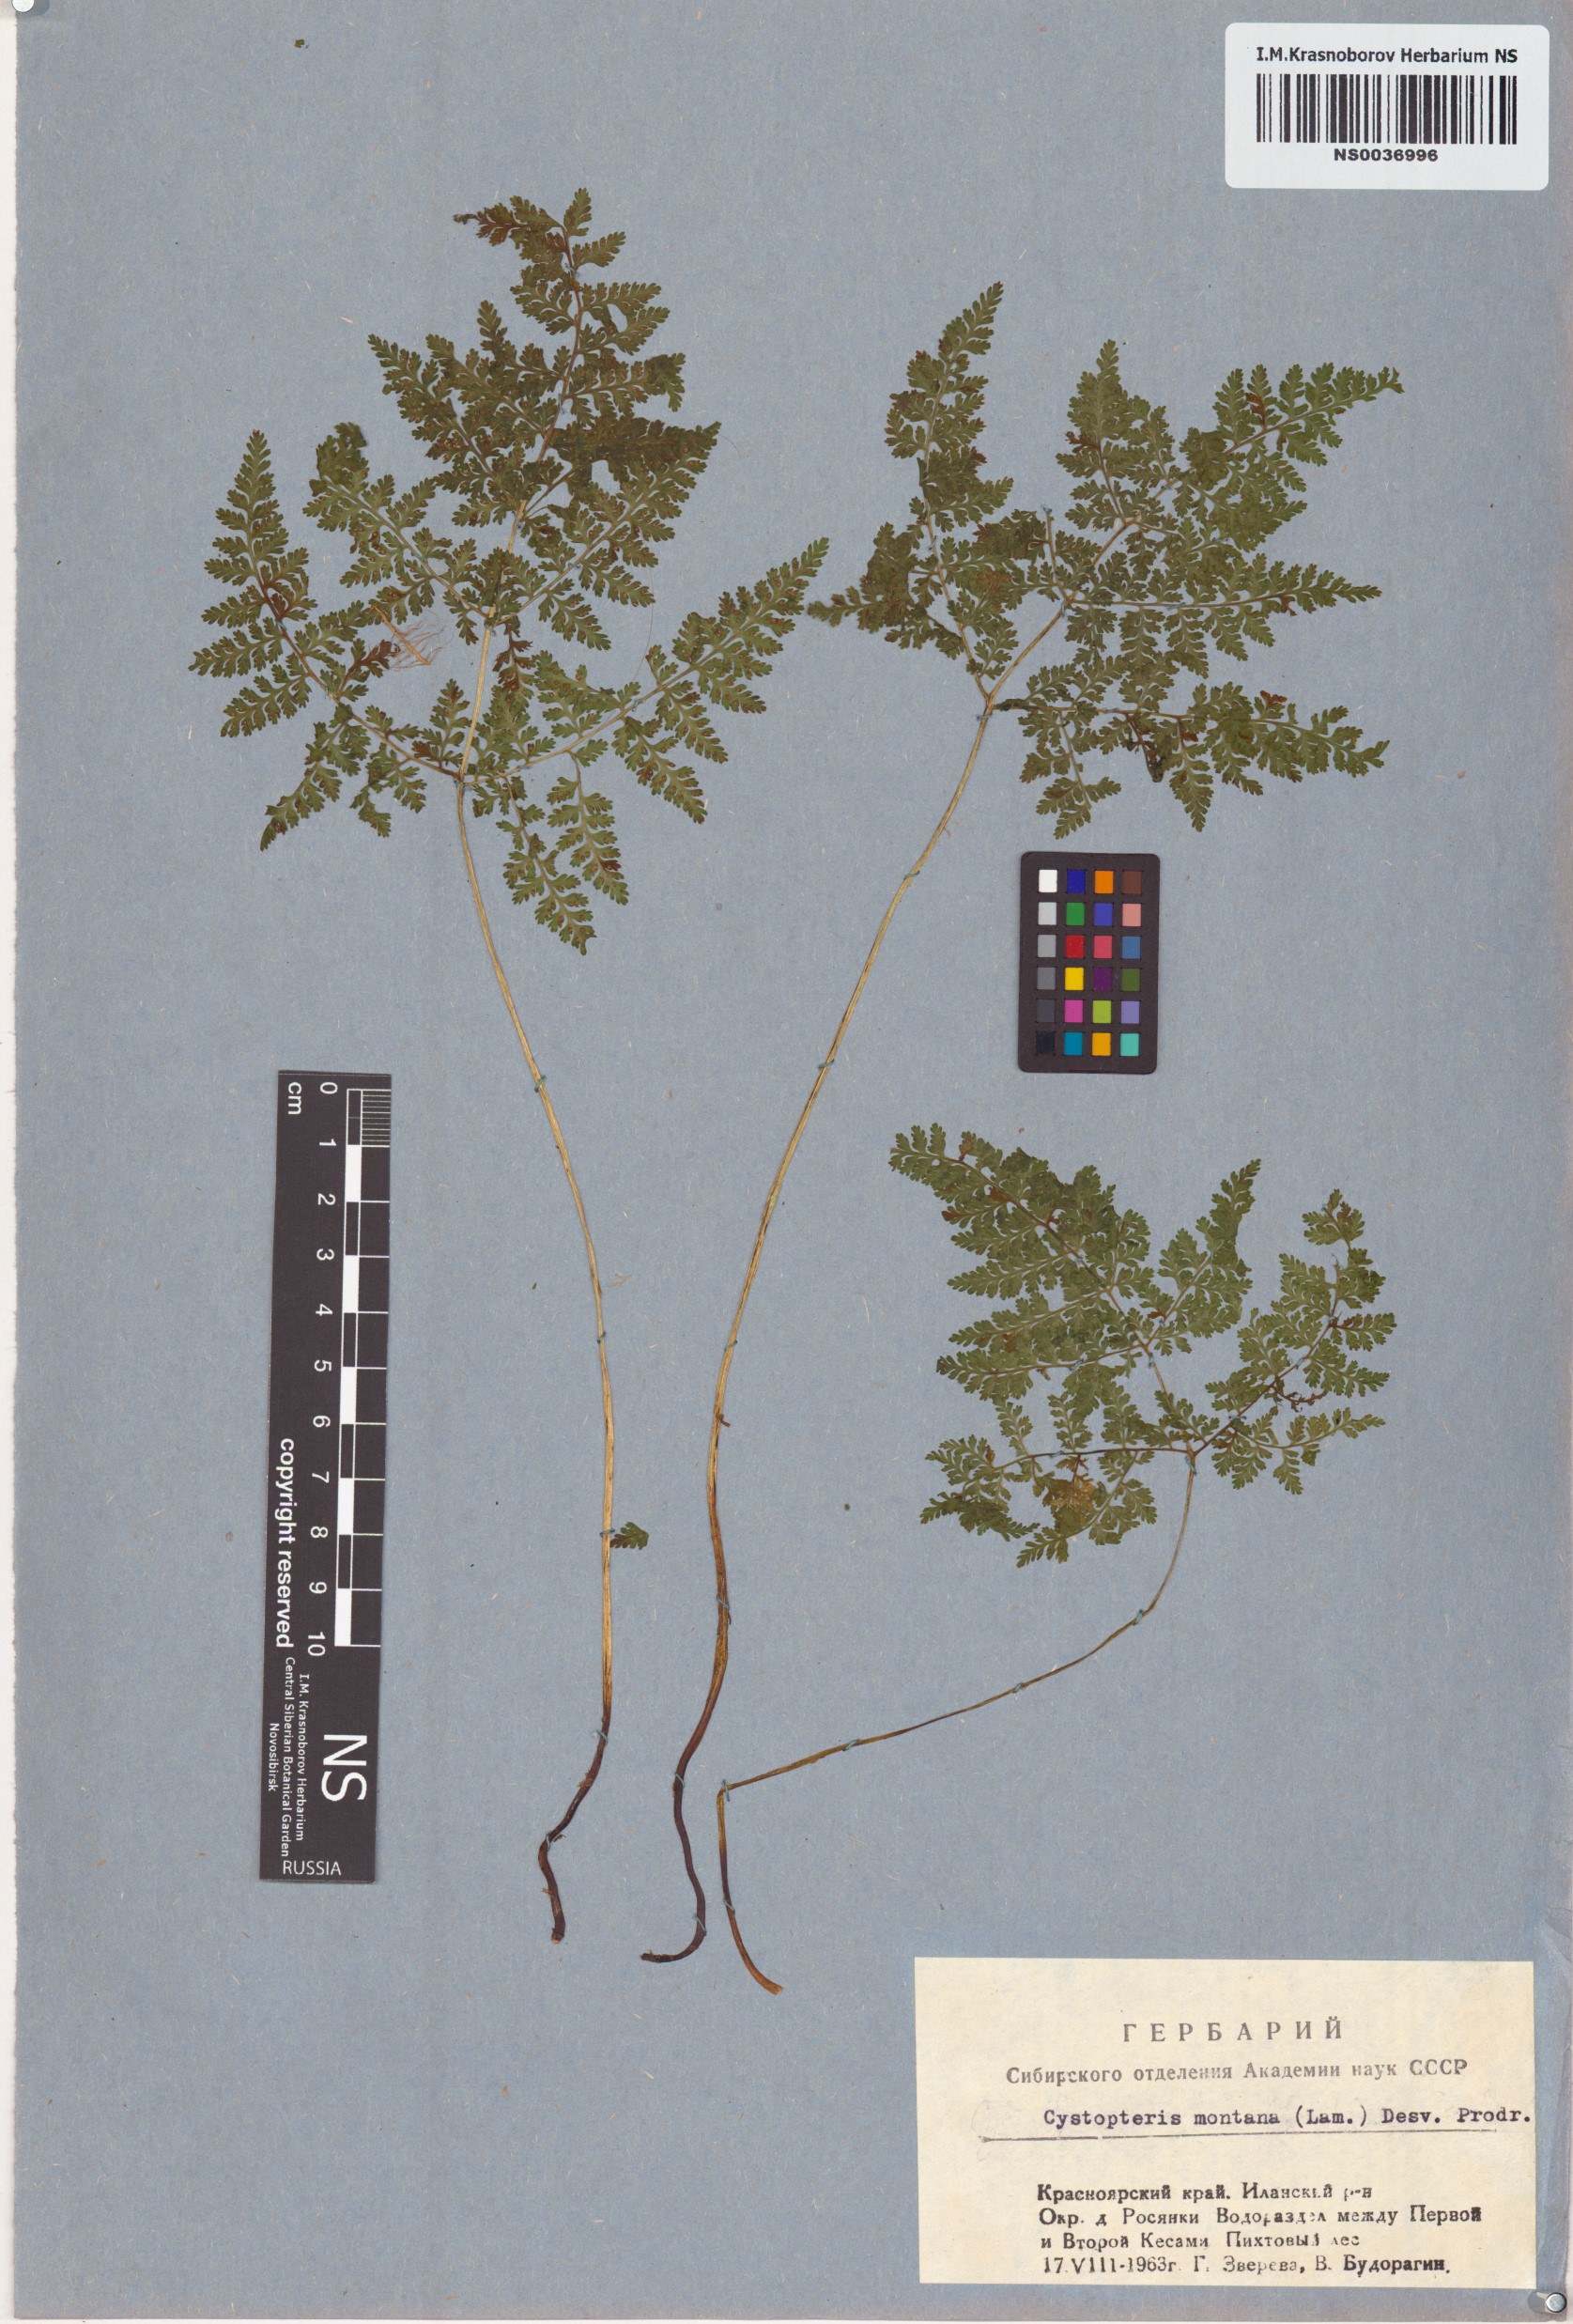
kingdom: Plantae
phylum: Tracheophyta
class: Polypodiopsida
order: Polypodiales
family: Cystopteridaceae
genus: Cystopteris
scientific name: Cystopteris montana
